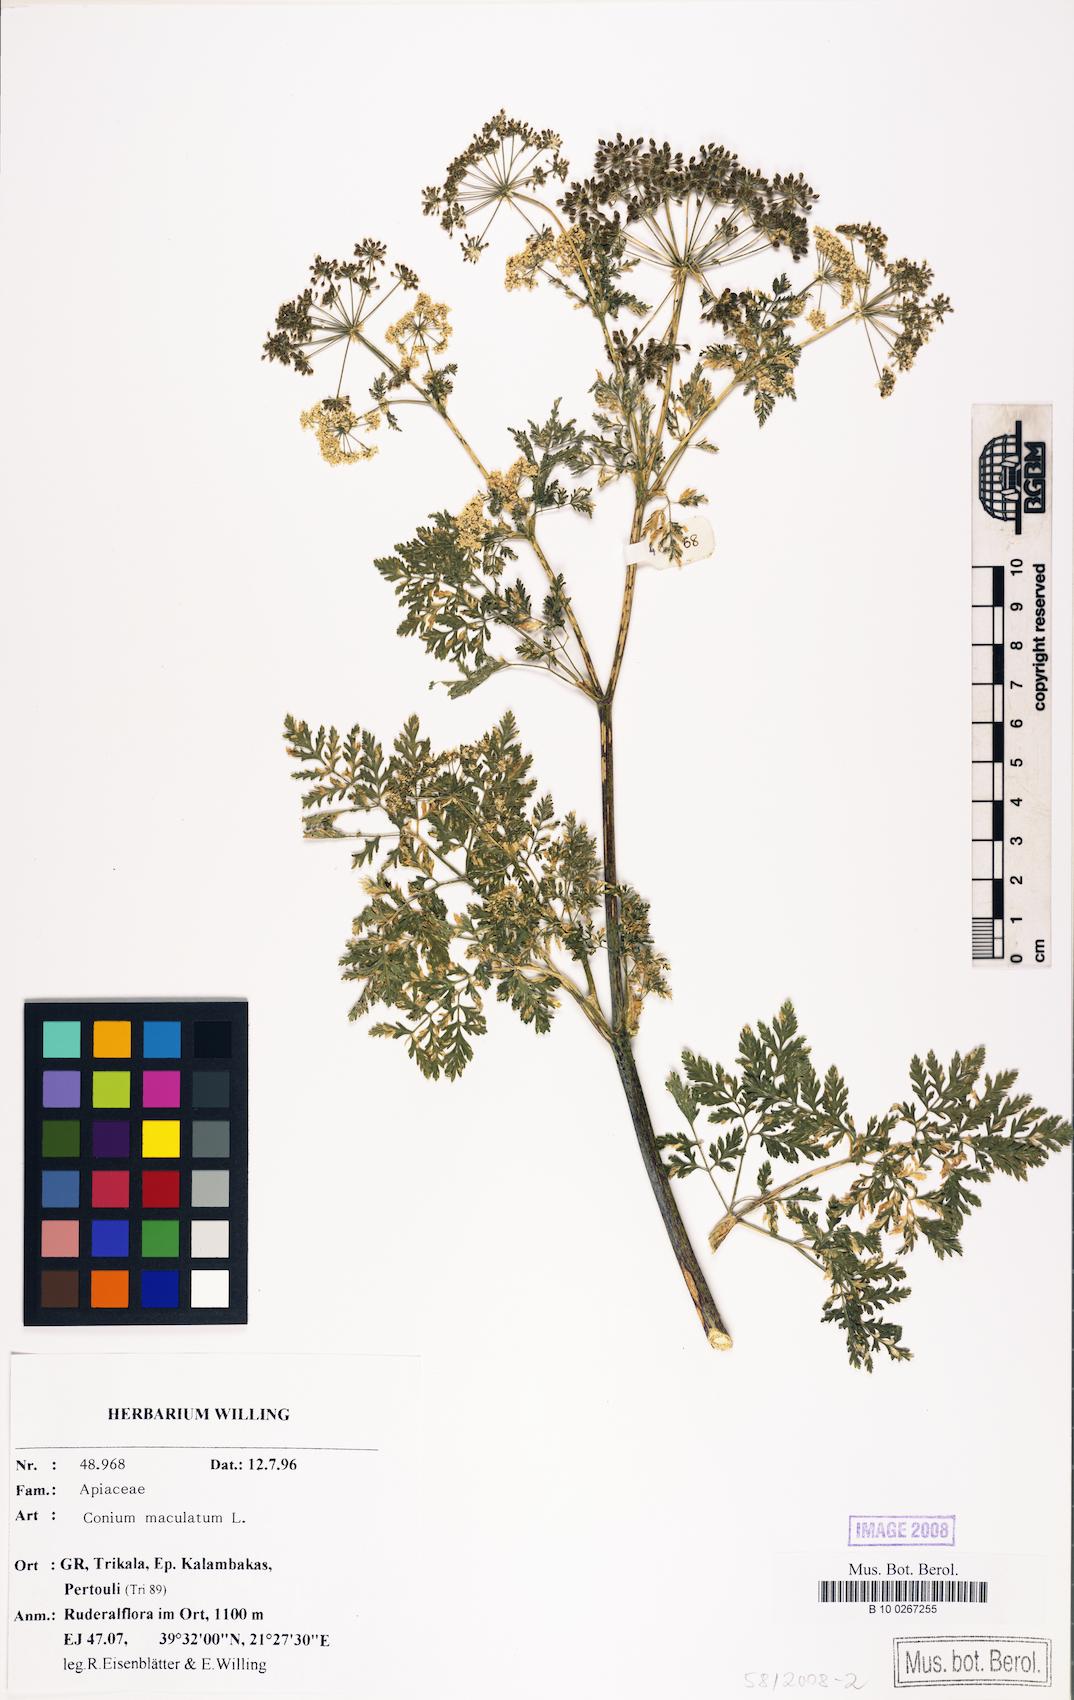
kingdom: Plantae
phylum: Tracheophyta
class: Magnoliopsida
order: Apiales
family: Apiaceae
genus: Conium
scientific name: Conium maculatum
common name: Hemlock
